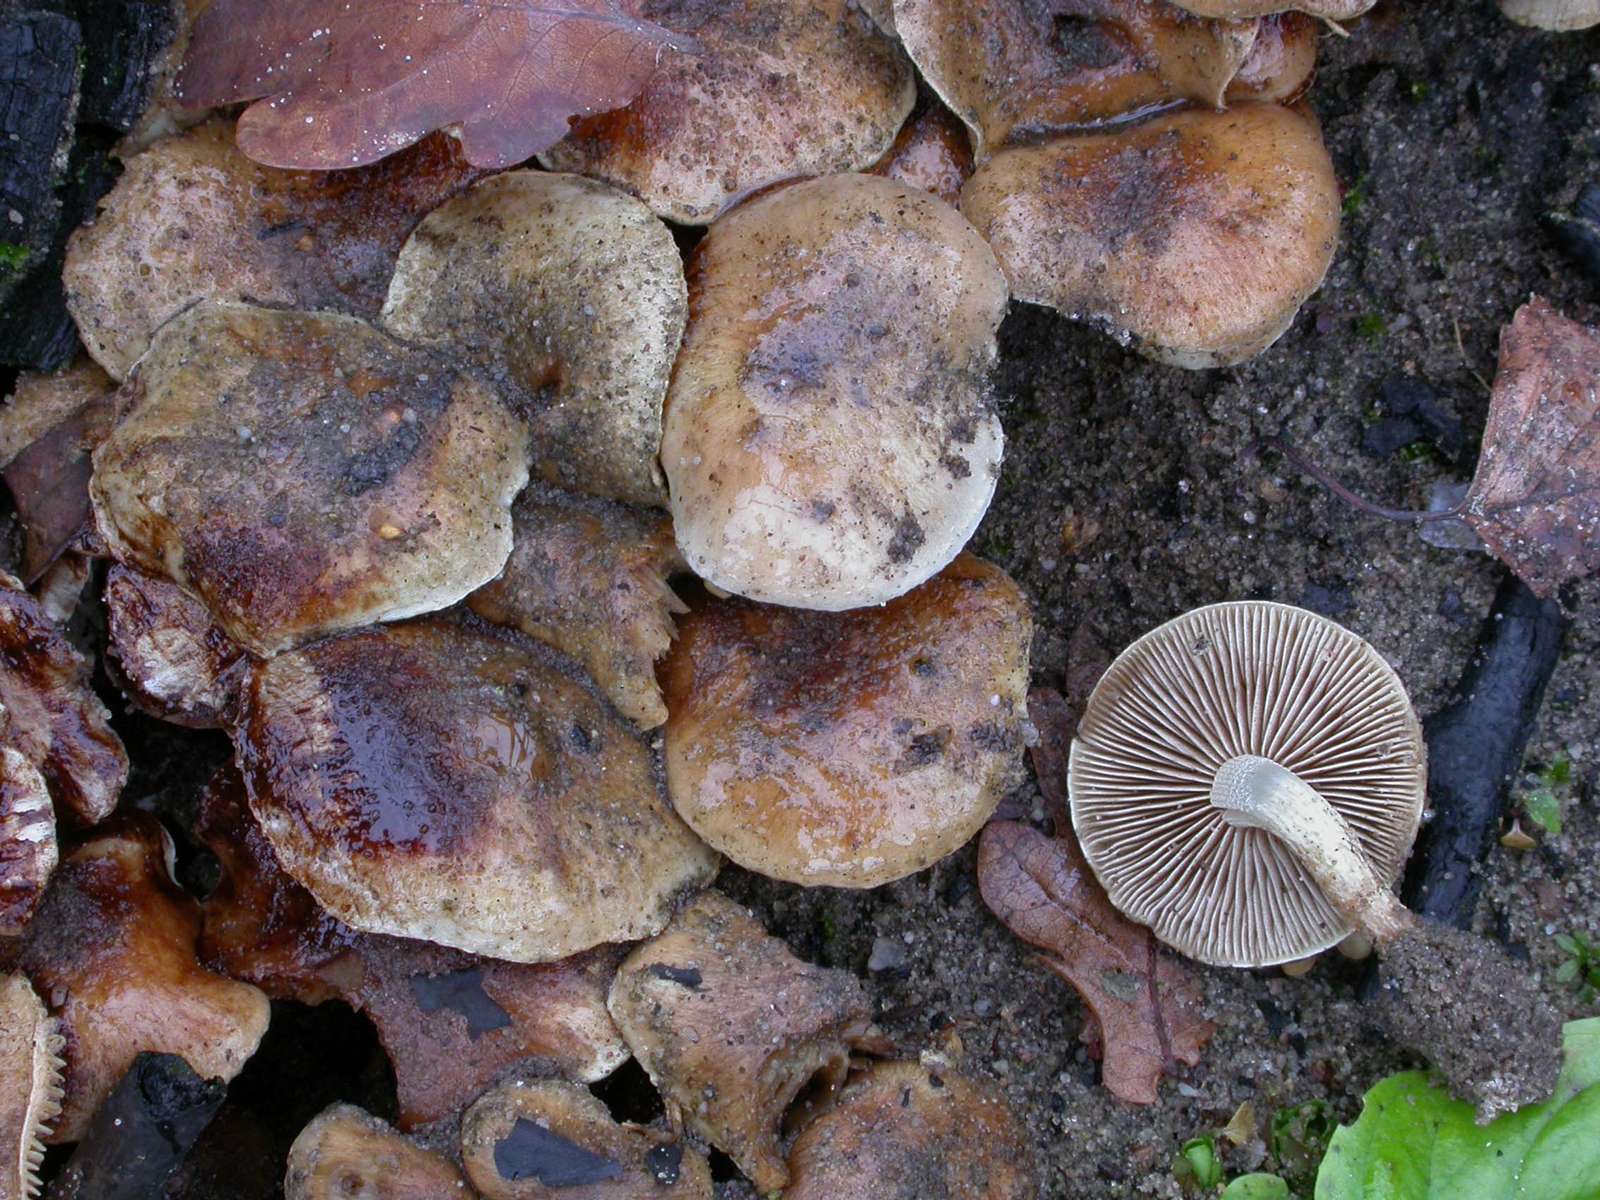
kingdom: Fungi
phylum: Basidiomycota
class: Agaricomycetes
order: Agaricales
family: Strophariaceae
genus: Pholiota
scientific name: Pholiota carbonaria
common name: kul-skælhat
